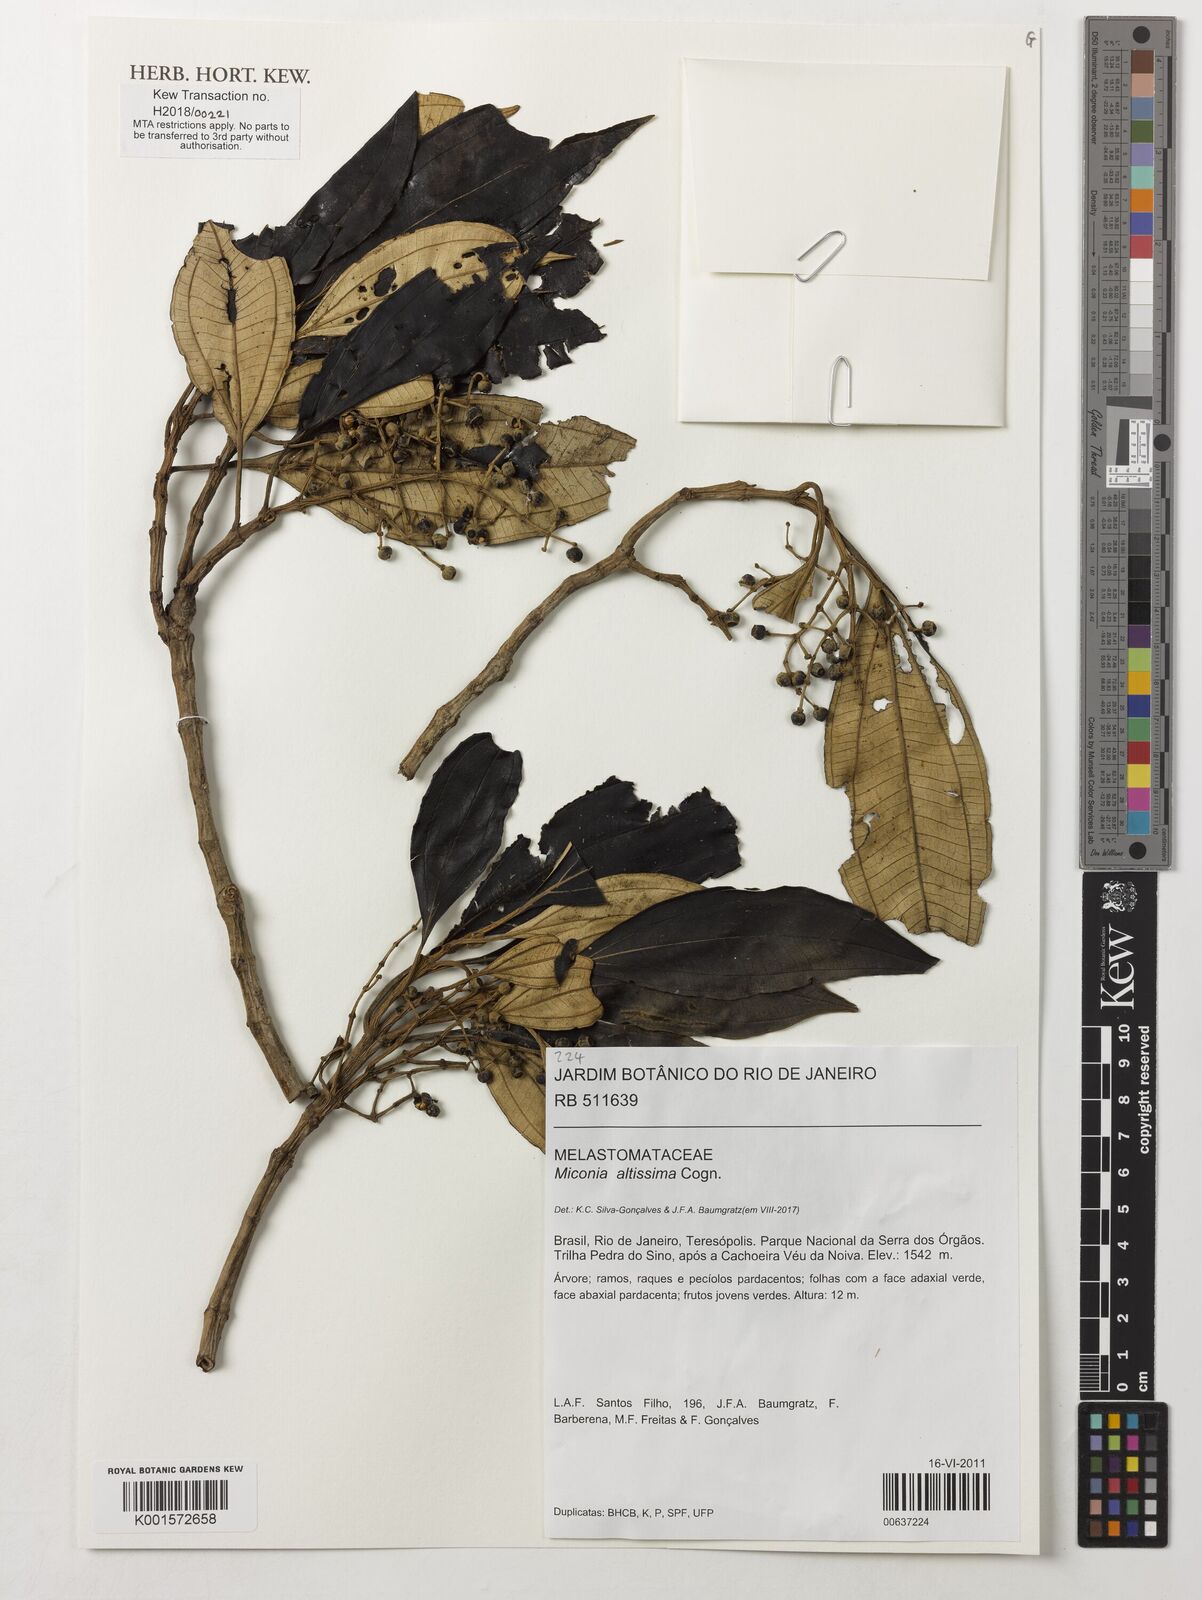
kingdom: Plantae
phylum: Tracheophyta
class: Magnoliopsida
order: Myrtales
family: Melastomataceae
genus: Miconia
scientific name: Miconia formosa
